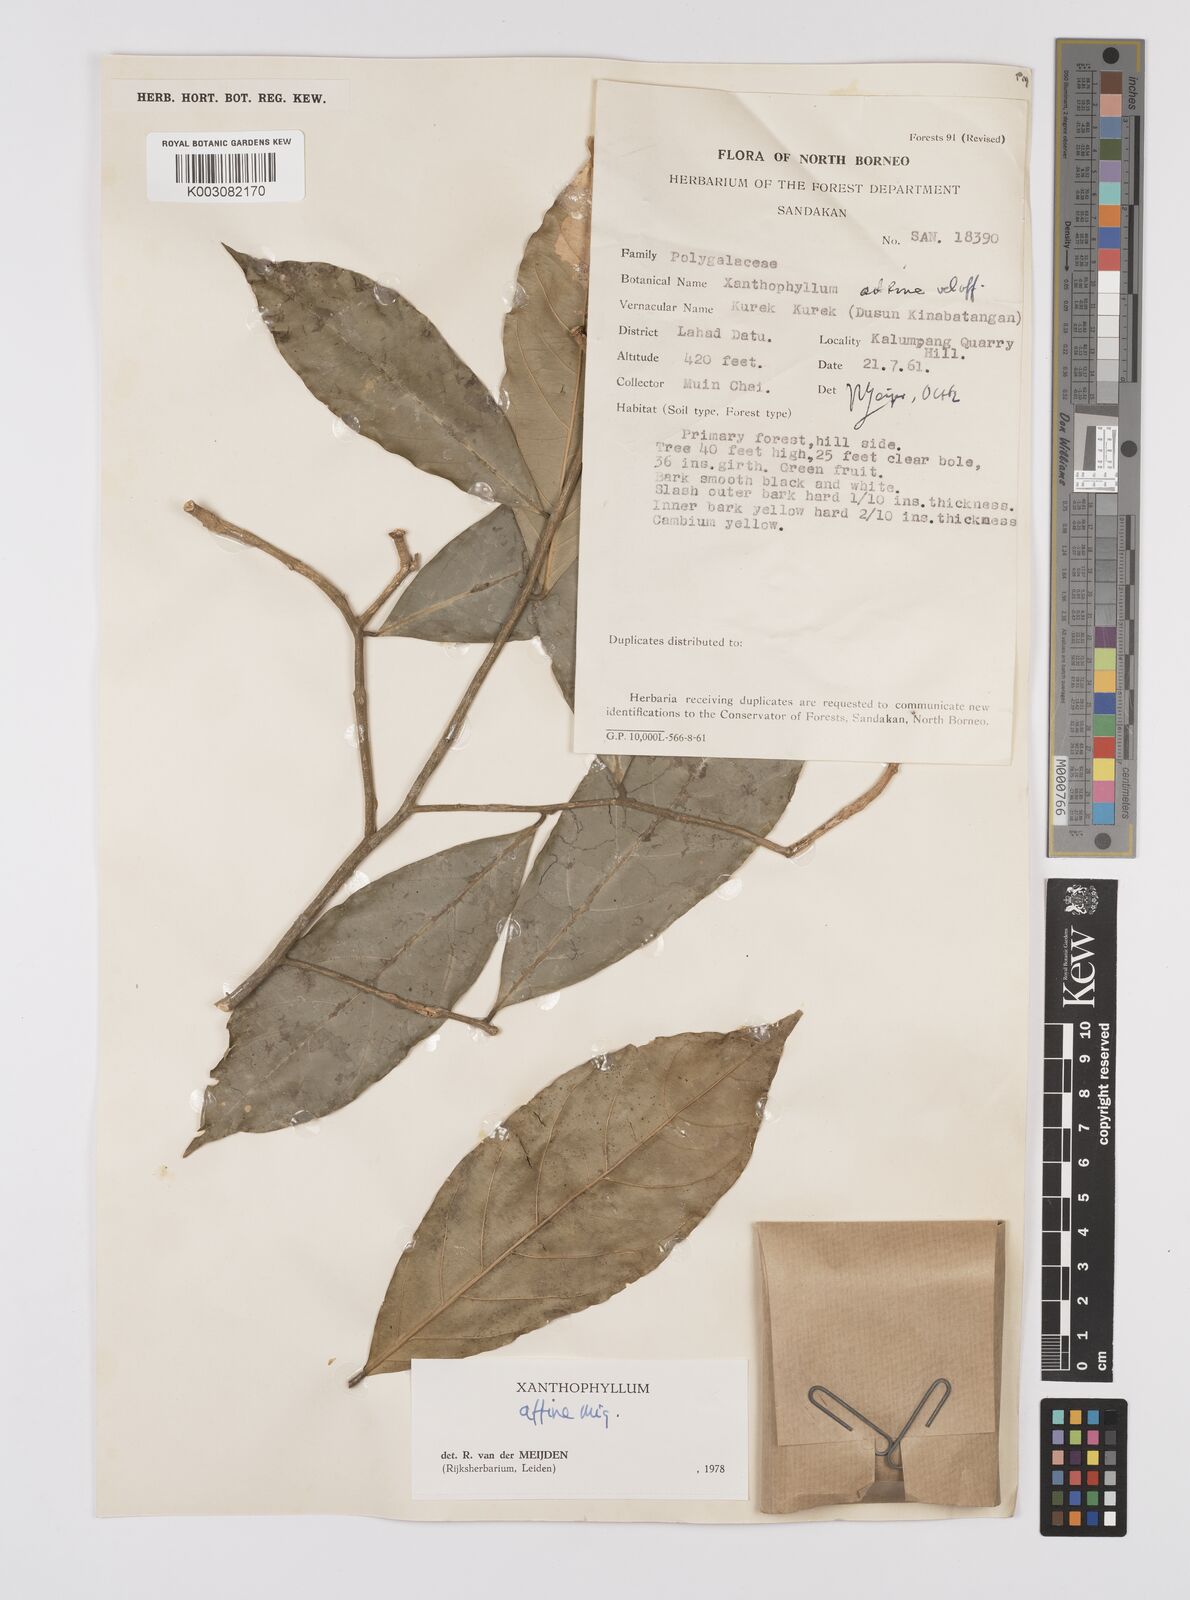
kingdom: Plantae
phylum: Tracheophyta
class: Magnoliopsida
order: Fabales
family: Polygalaceae
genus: Xanthophyllum
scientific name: Xanthophyllum flavescens
